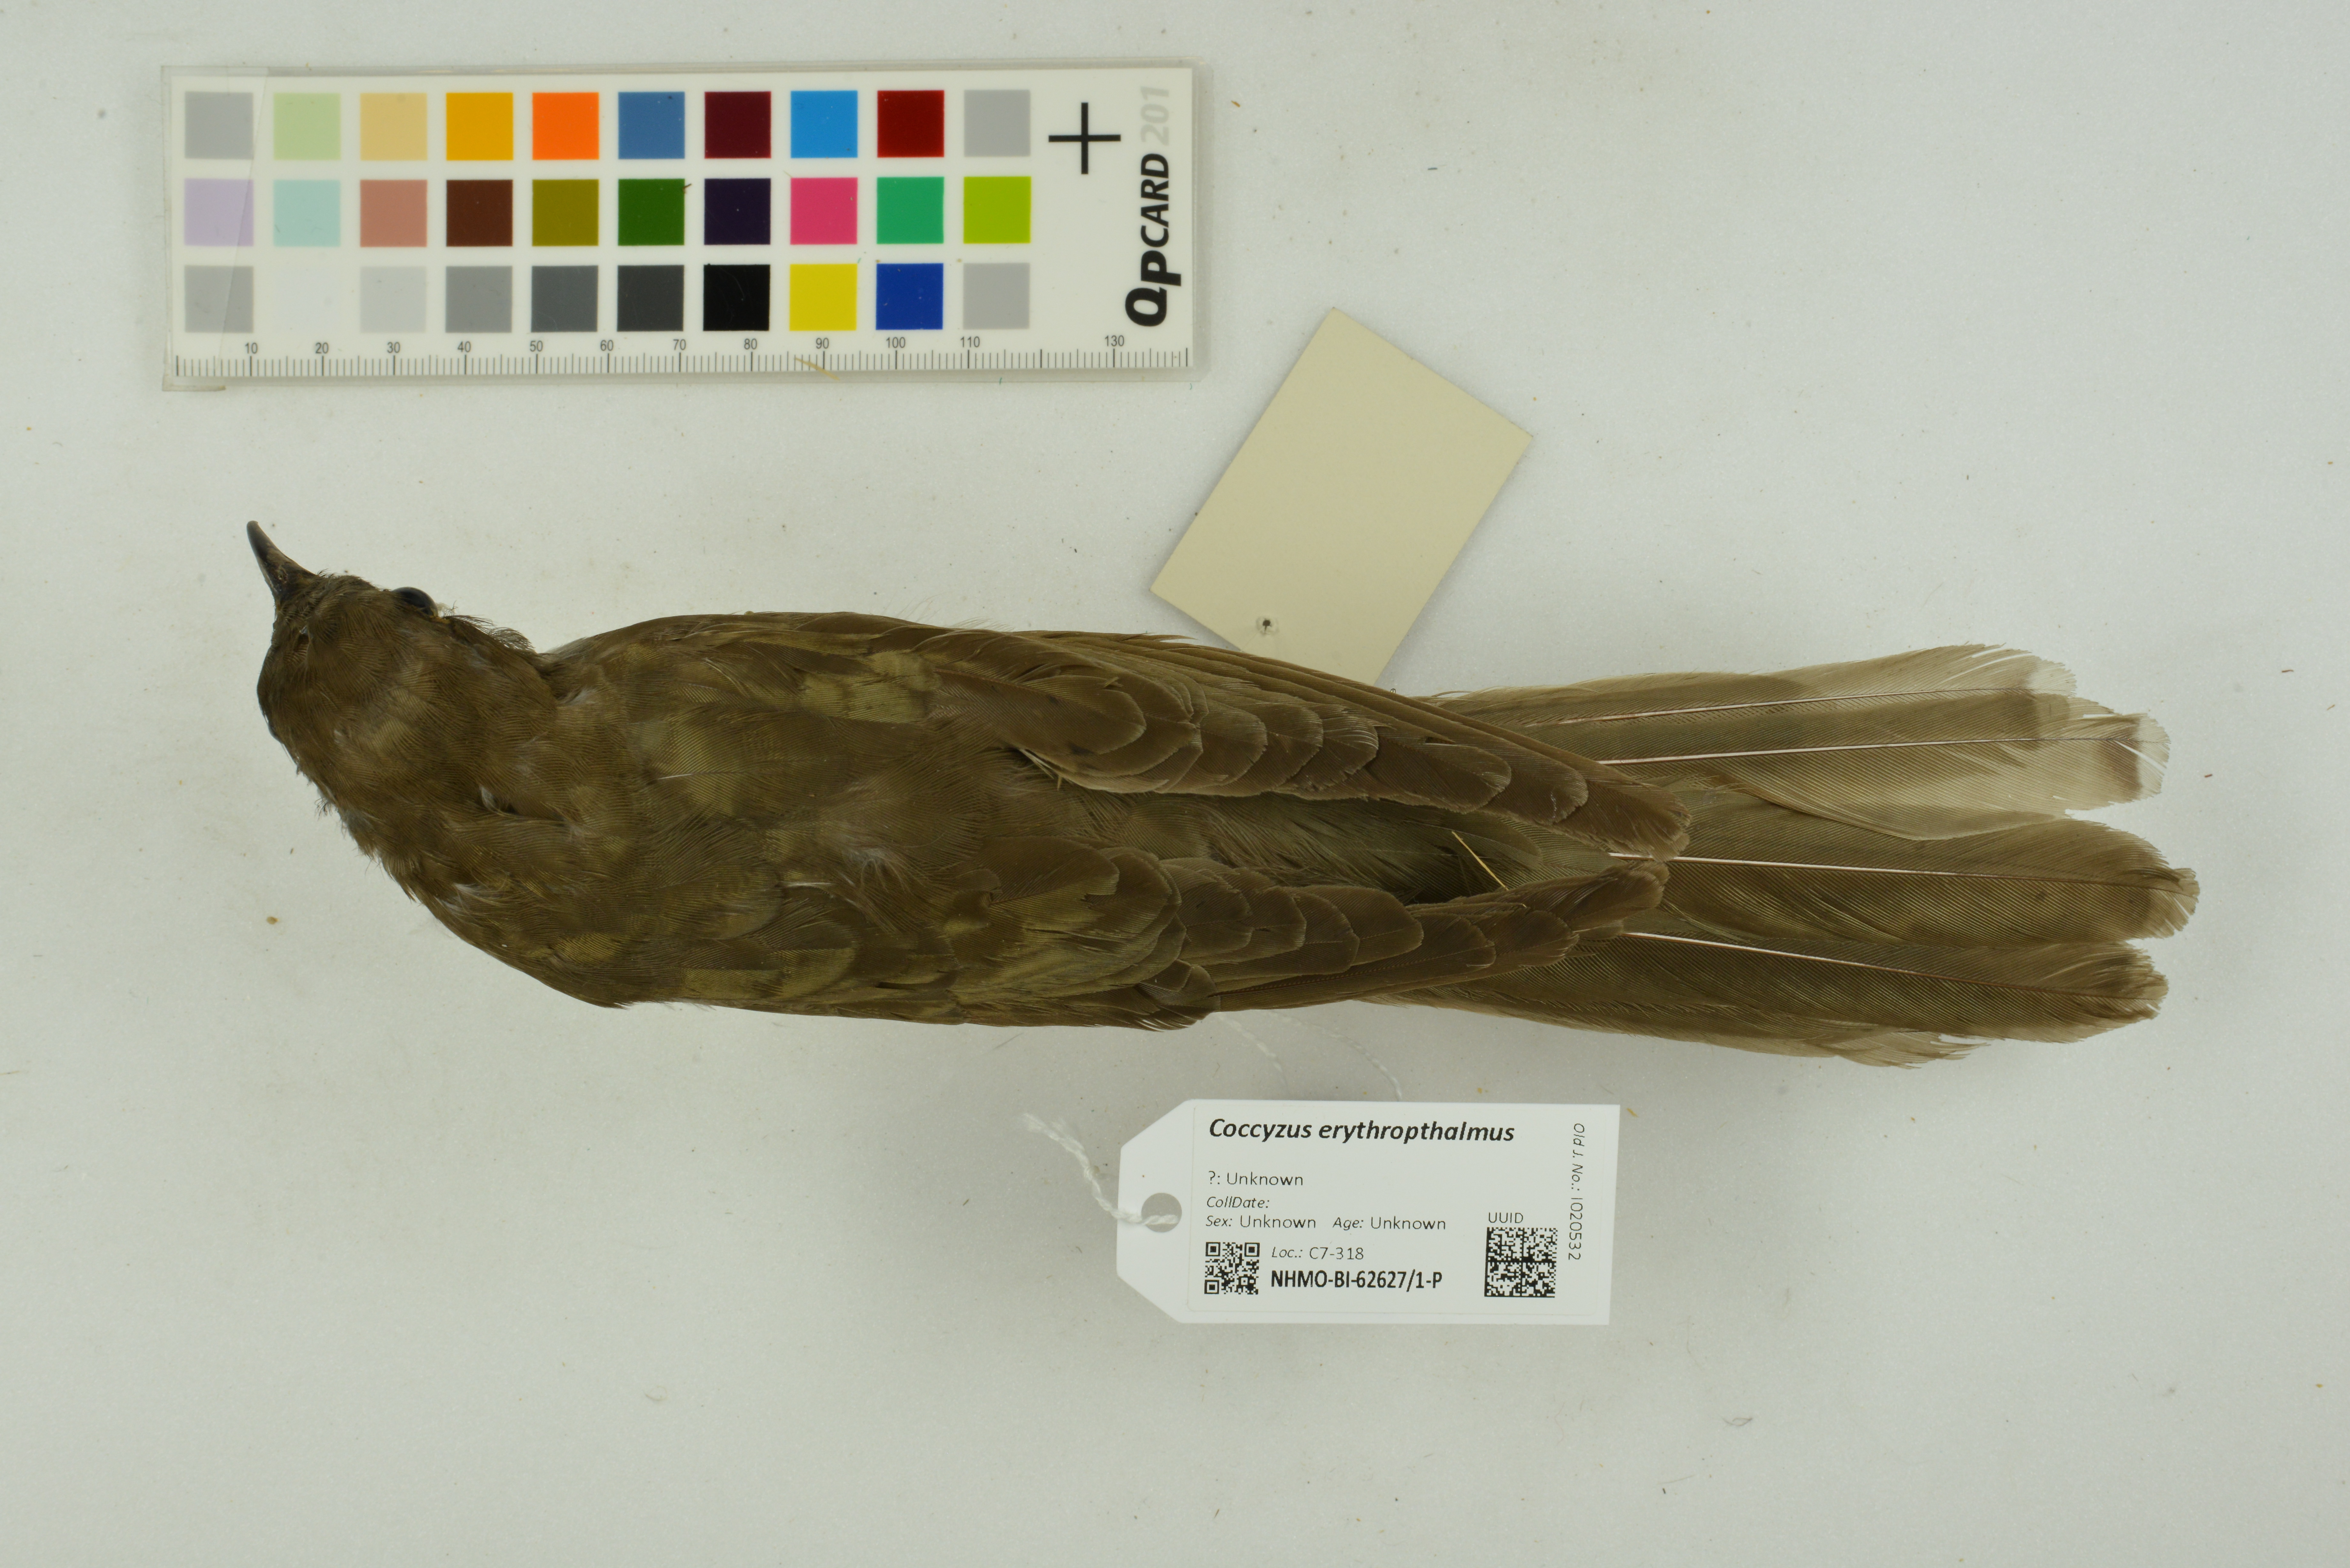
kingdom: Animalia
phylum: Chordata
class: Aves
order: Cuculiformes
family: Cuculidae
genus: Coccyzus
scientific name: Coccyzus erythropthalmus
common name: Black-billed cuckoo
